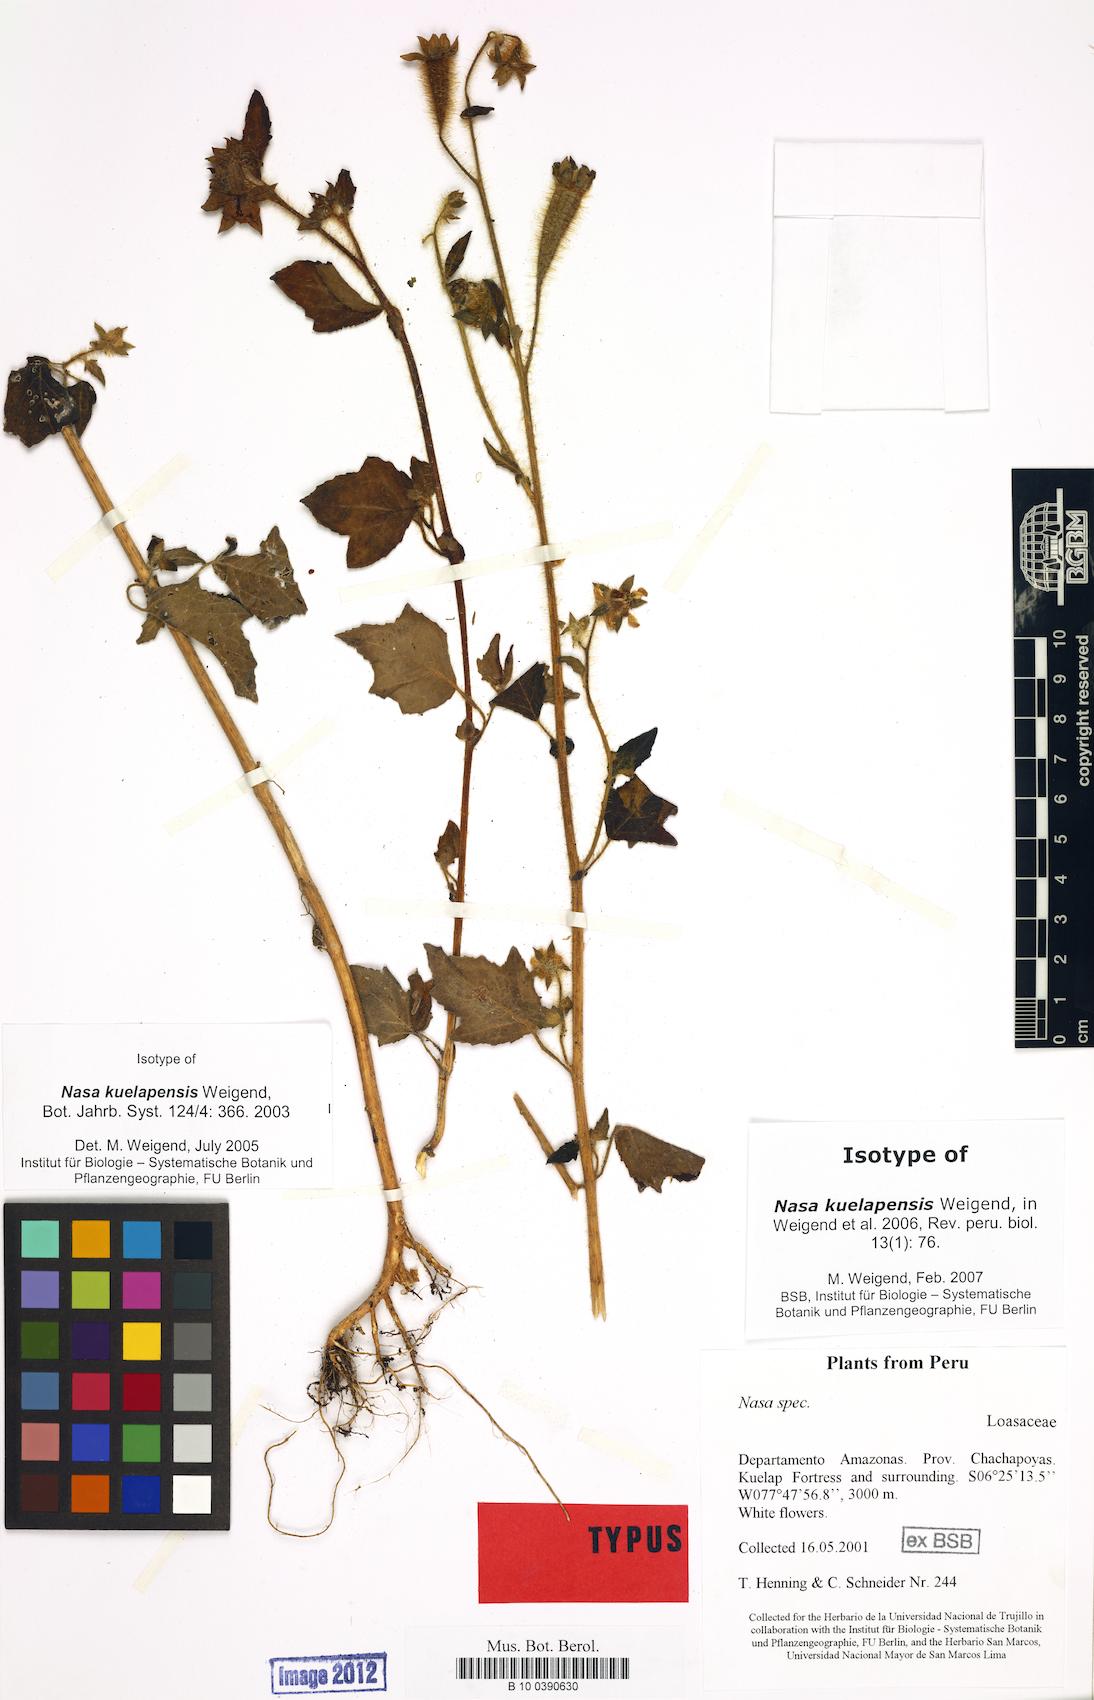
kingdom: Plantae
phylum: Tracheophyta
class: Magnoliopsida
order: Cornales
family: Loasaceae
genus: Nasa
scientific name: Nasa kuelapensis
